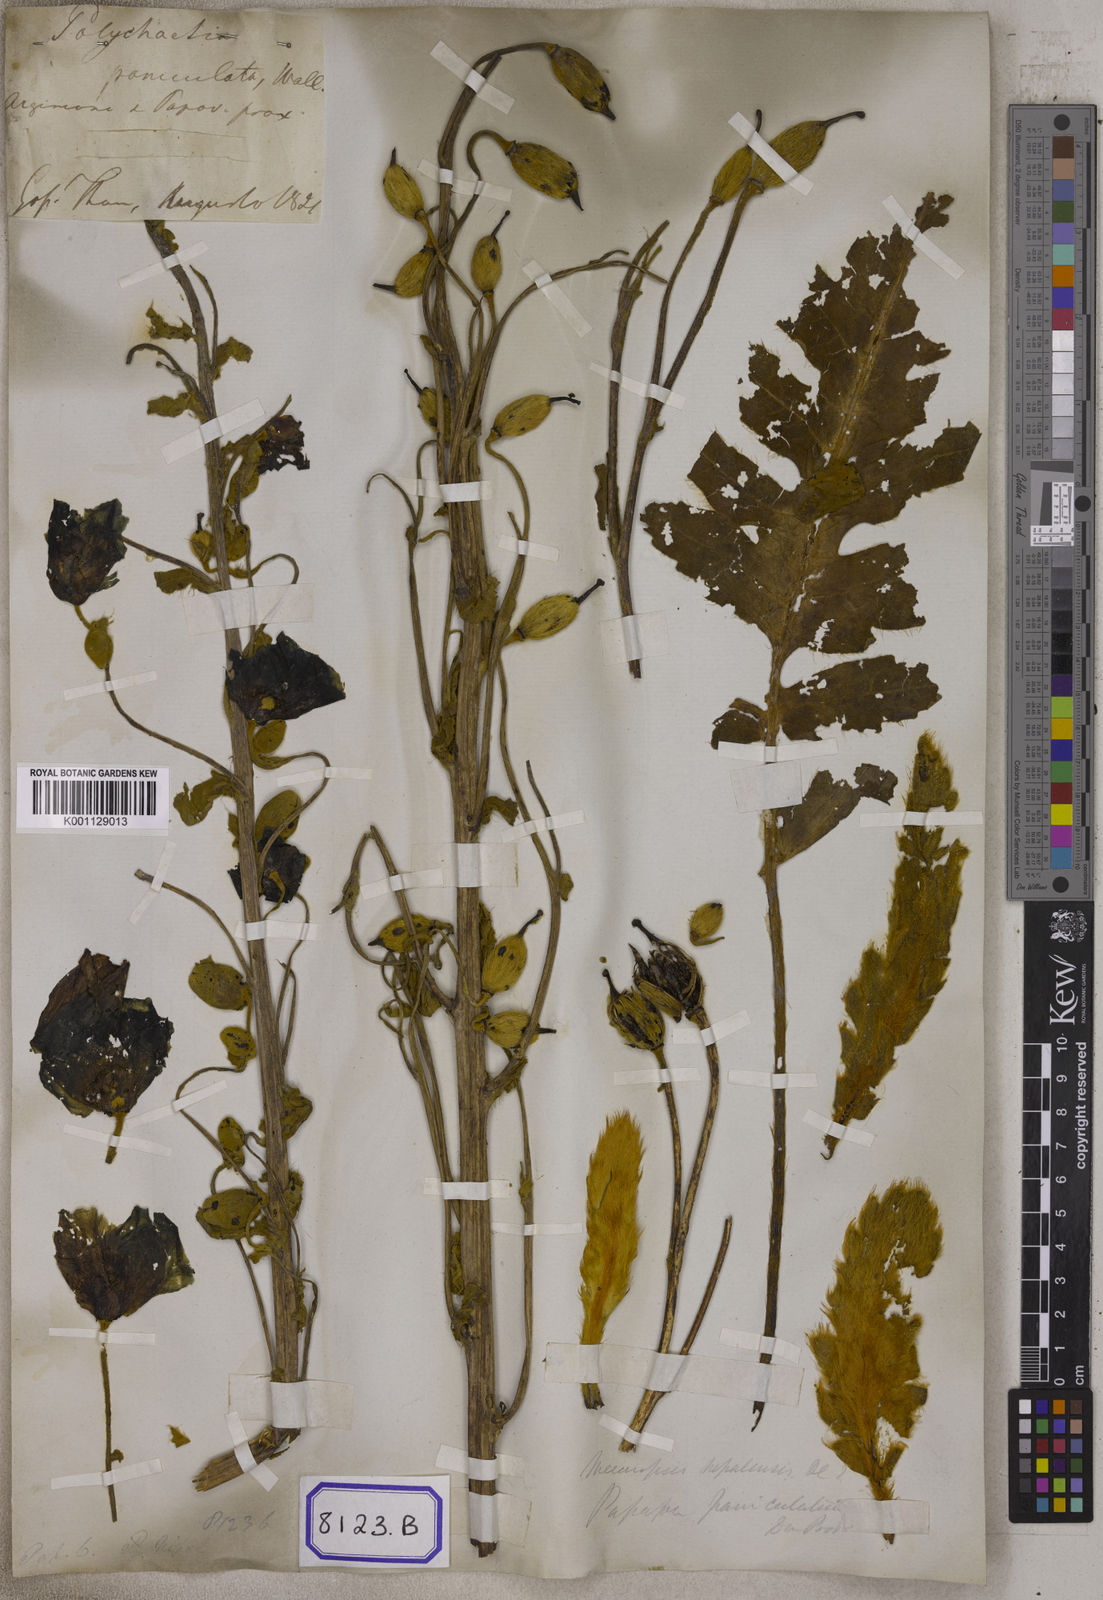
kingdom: Plantae
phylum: Tracheophyta
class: Magnoliopsida
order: Ranunculales
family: Papaveraceae
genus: Meconopsis
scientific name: Meconopsis
